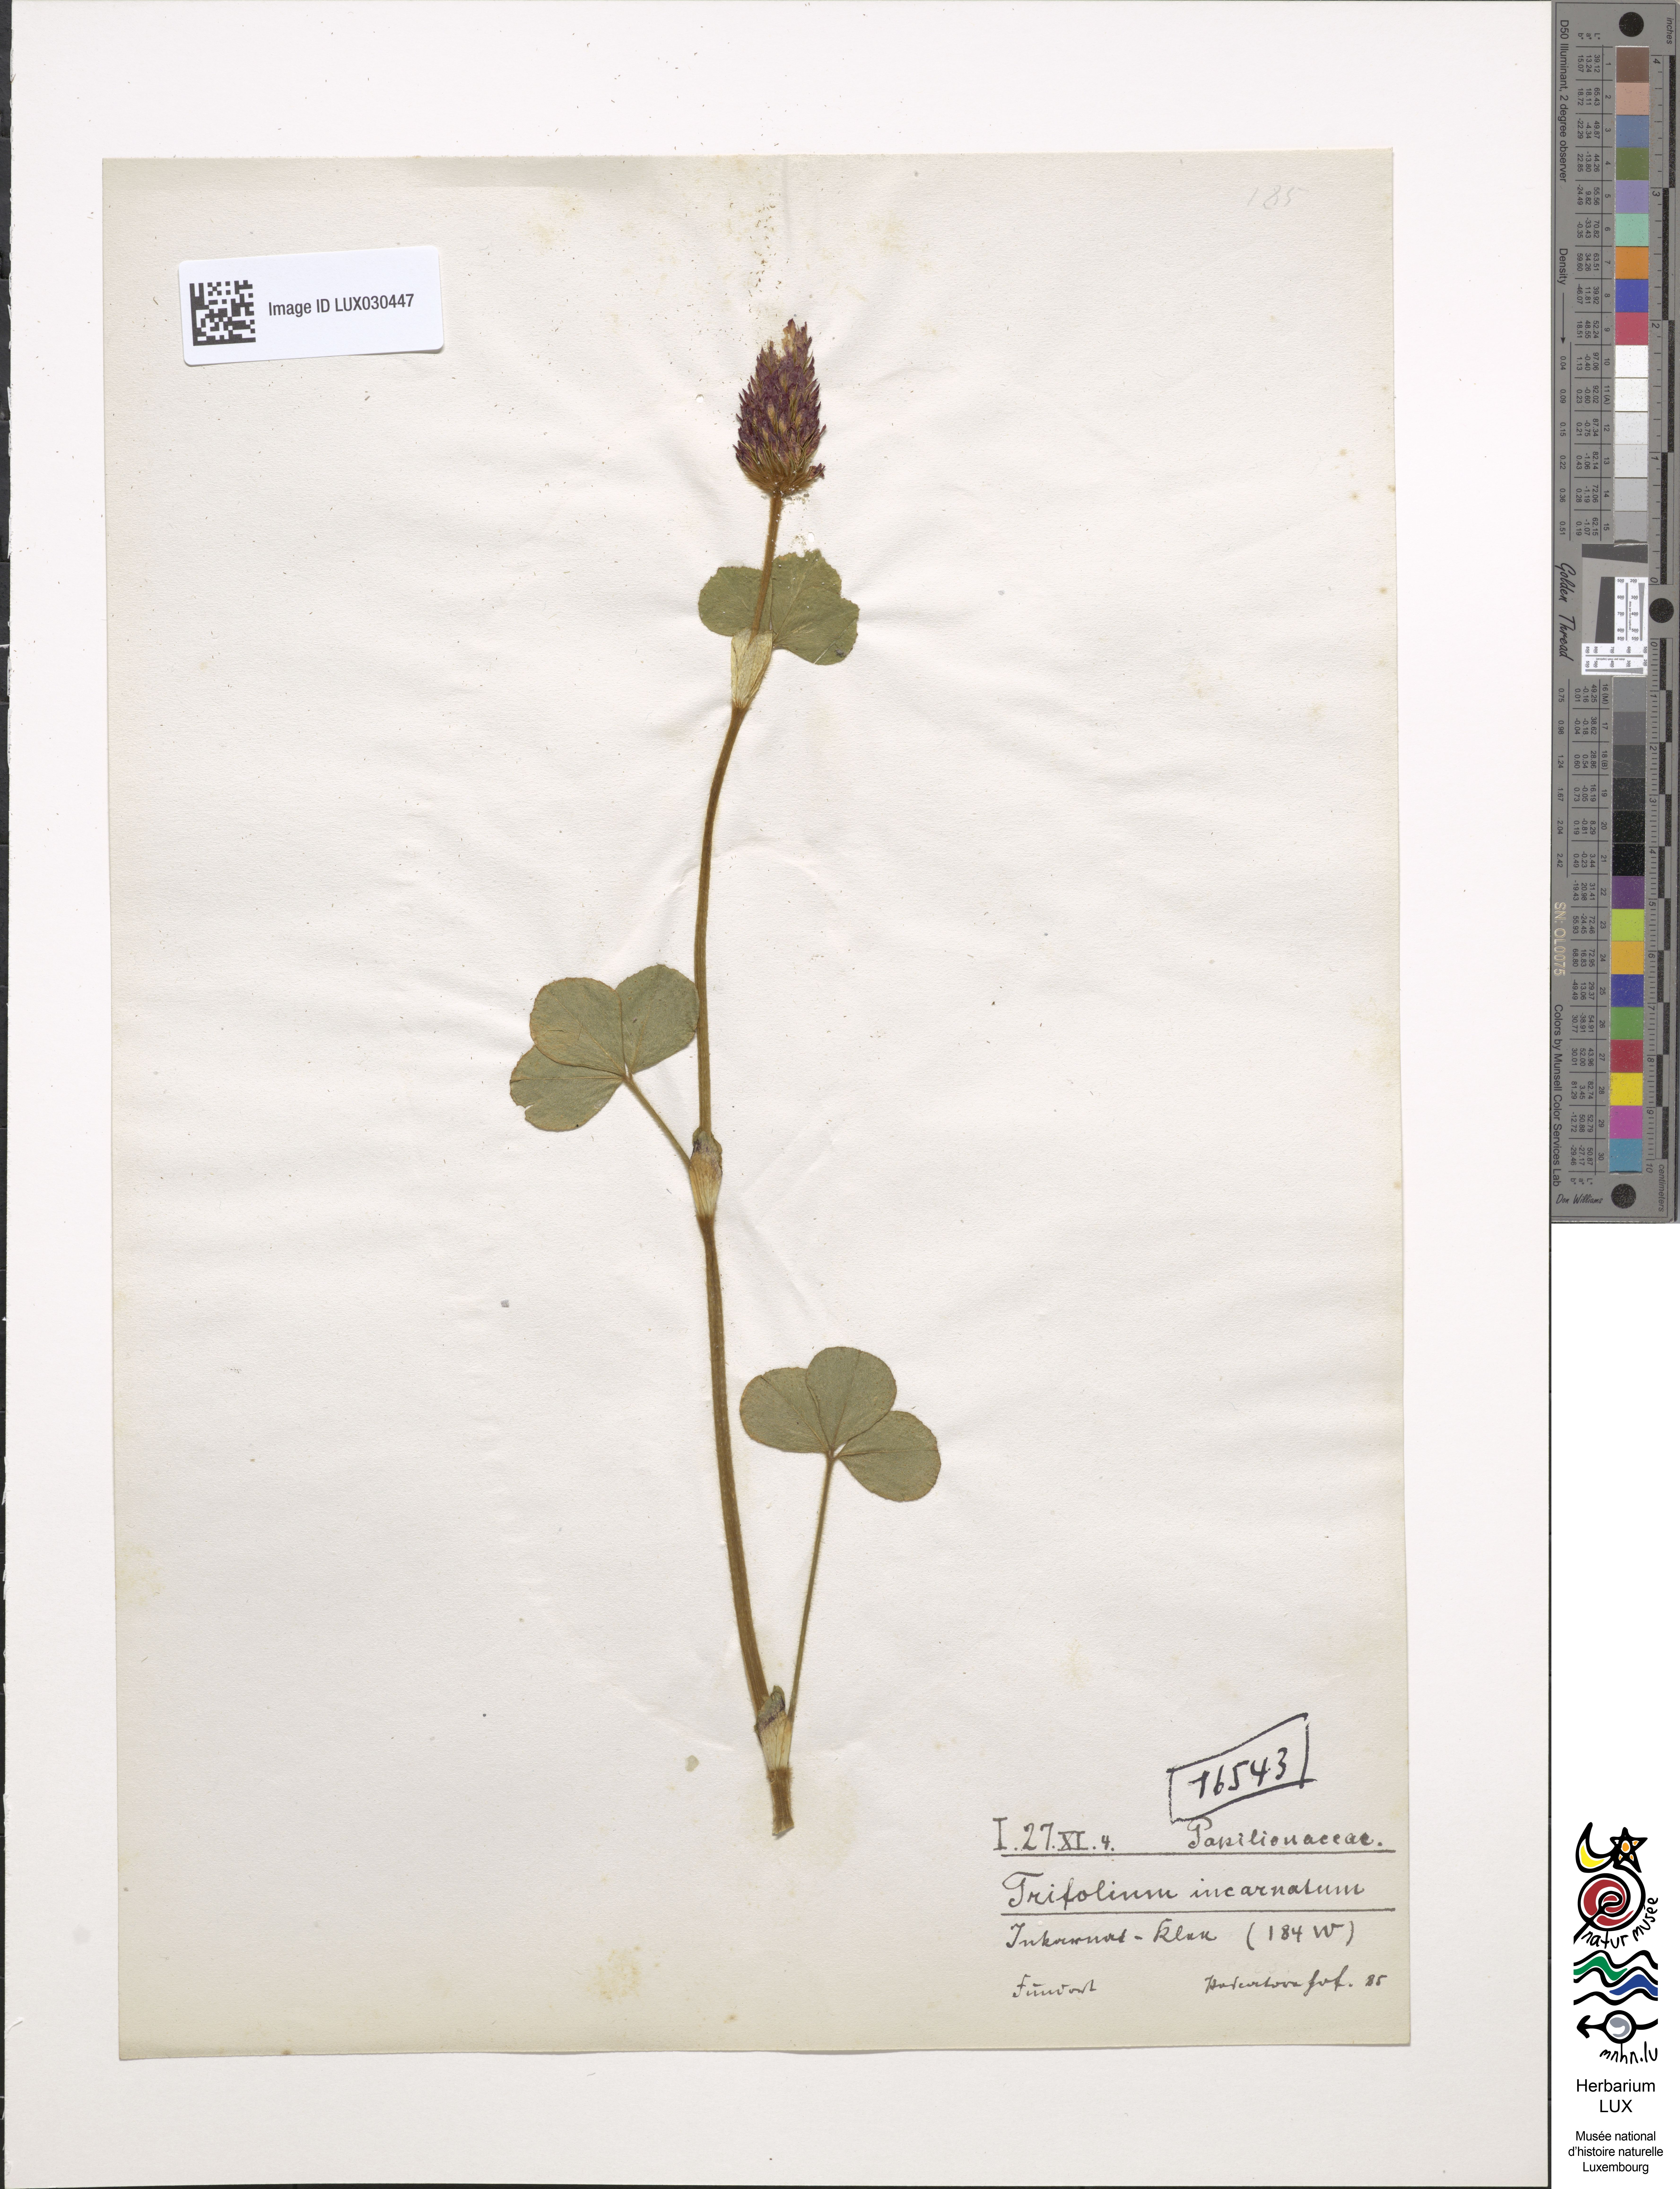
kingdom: Plantae
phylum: Tracheophyta
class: Magnoliopsida
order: Fabales
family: Fabaceae
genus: Trifolium
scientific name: Trifolium incarnatum
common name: Crimson clover
